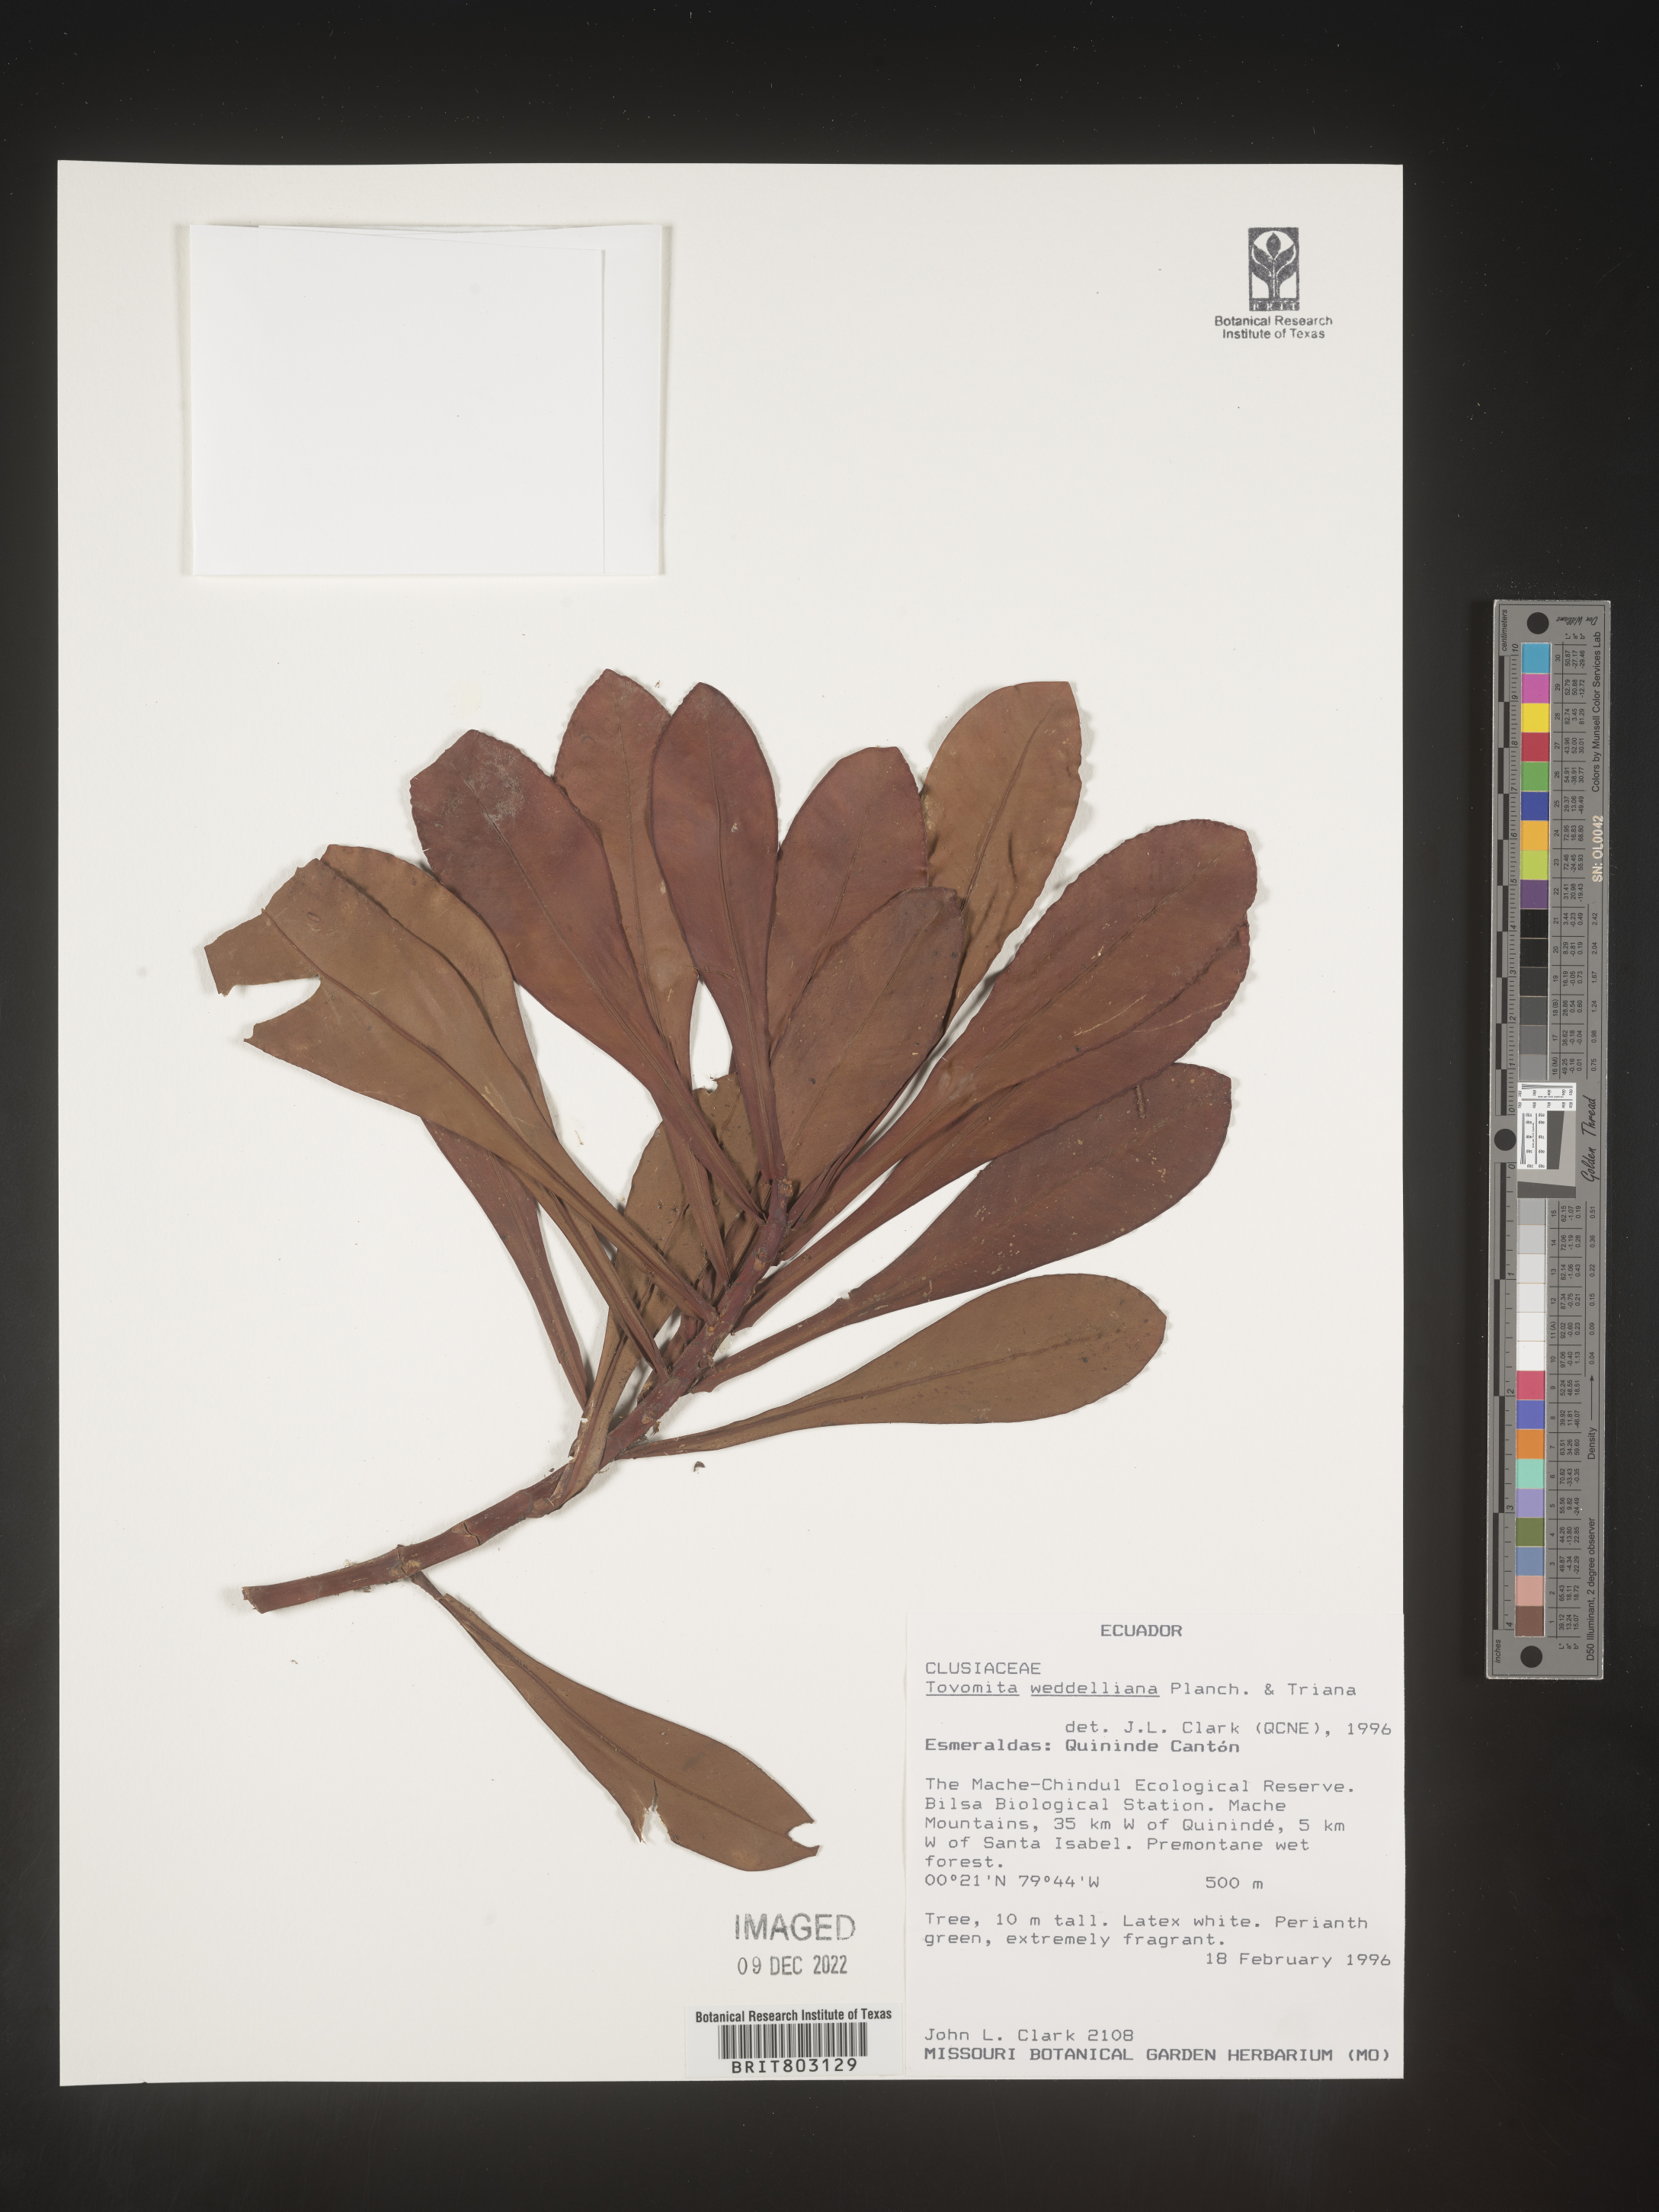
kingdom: Plantae
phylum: Tracheophyta
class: Magnoliopsida
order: Malpighiales
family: Clusiaceae
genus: Arawakia
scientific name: Arawakia weddelliana
